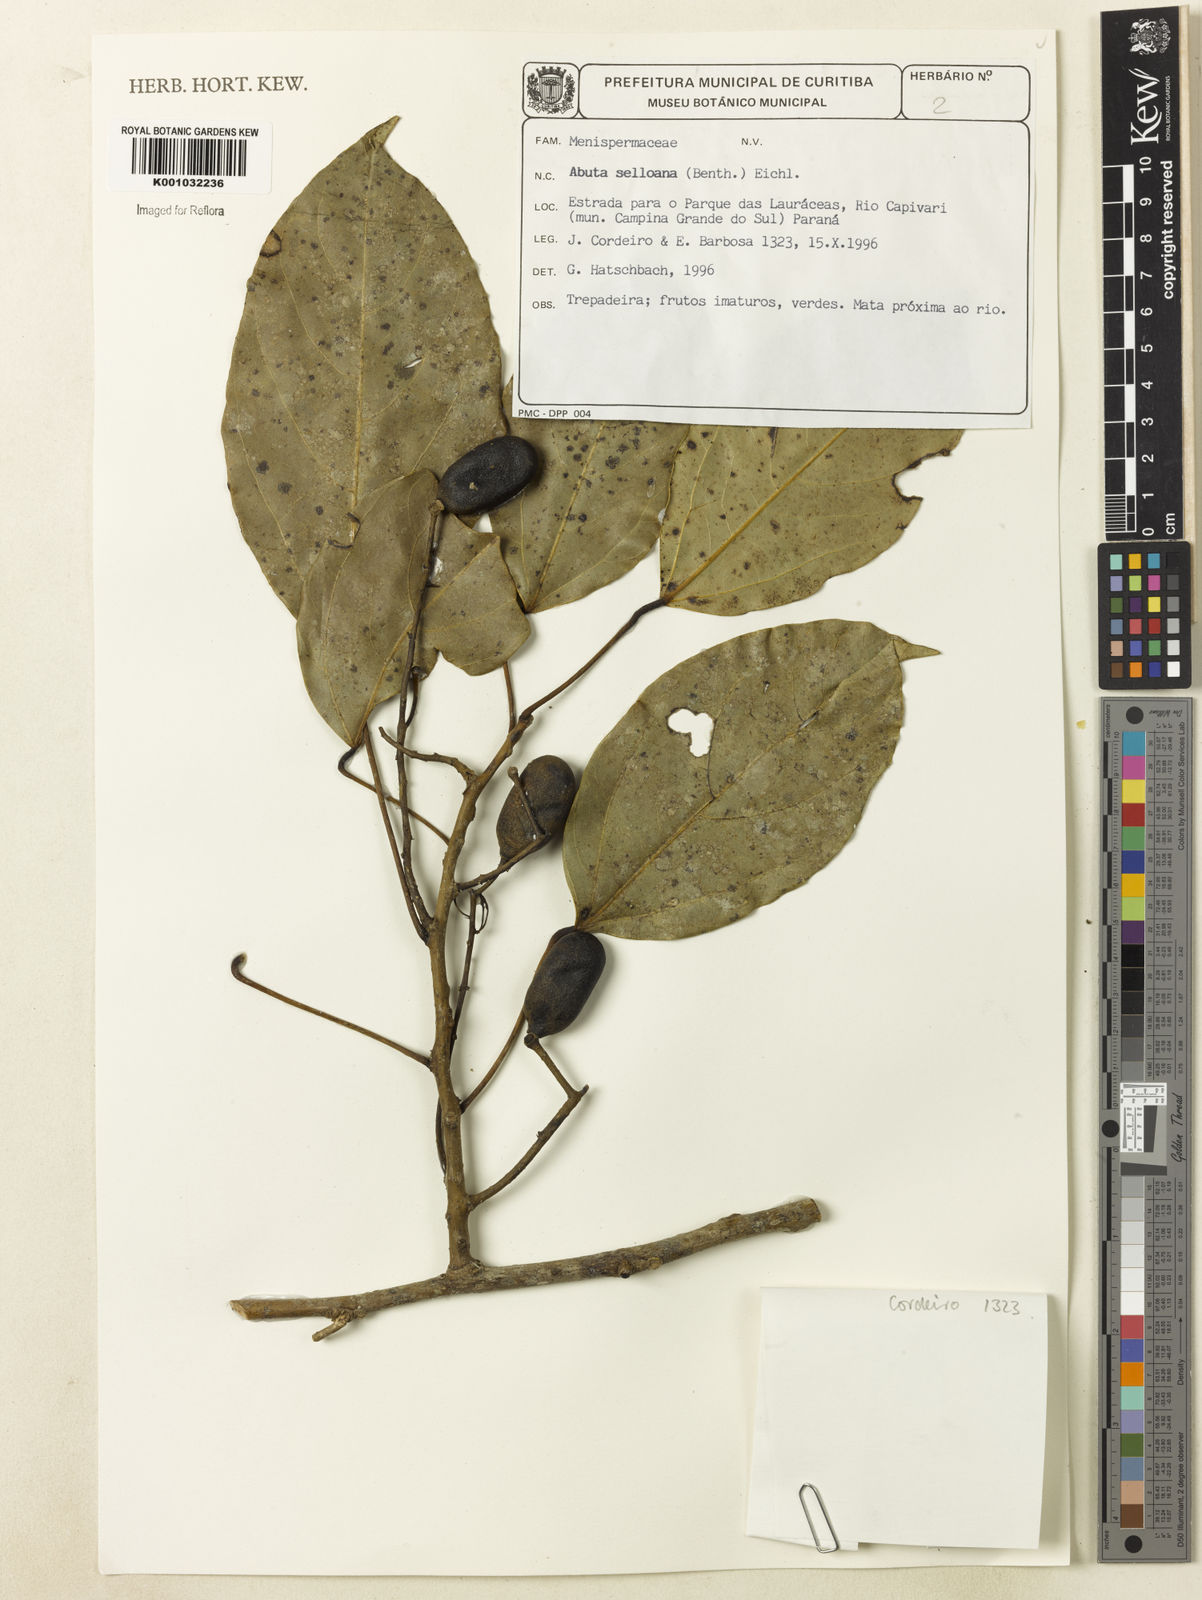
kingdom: Plantae
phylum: Tracheophyta
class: Magnoliopsida
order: Ranunculales
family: Menispermaceae
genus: Abuta
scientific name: Abuta selloana
